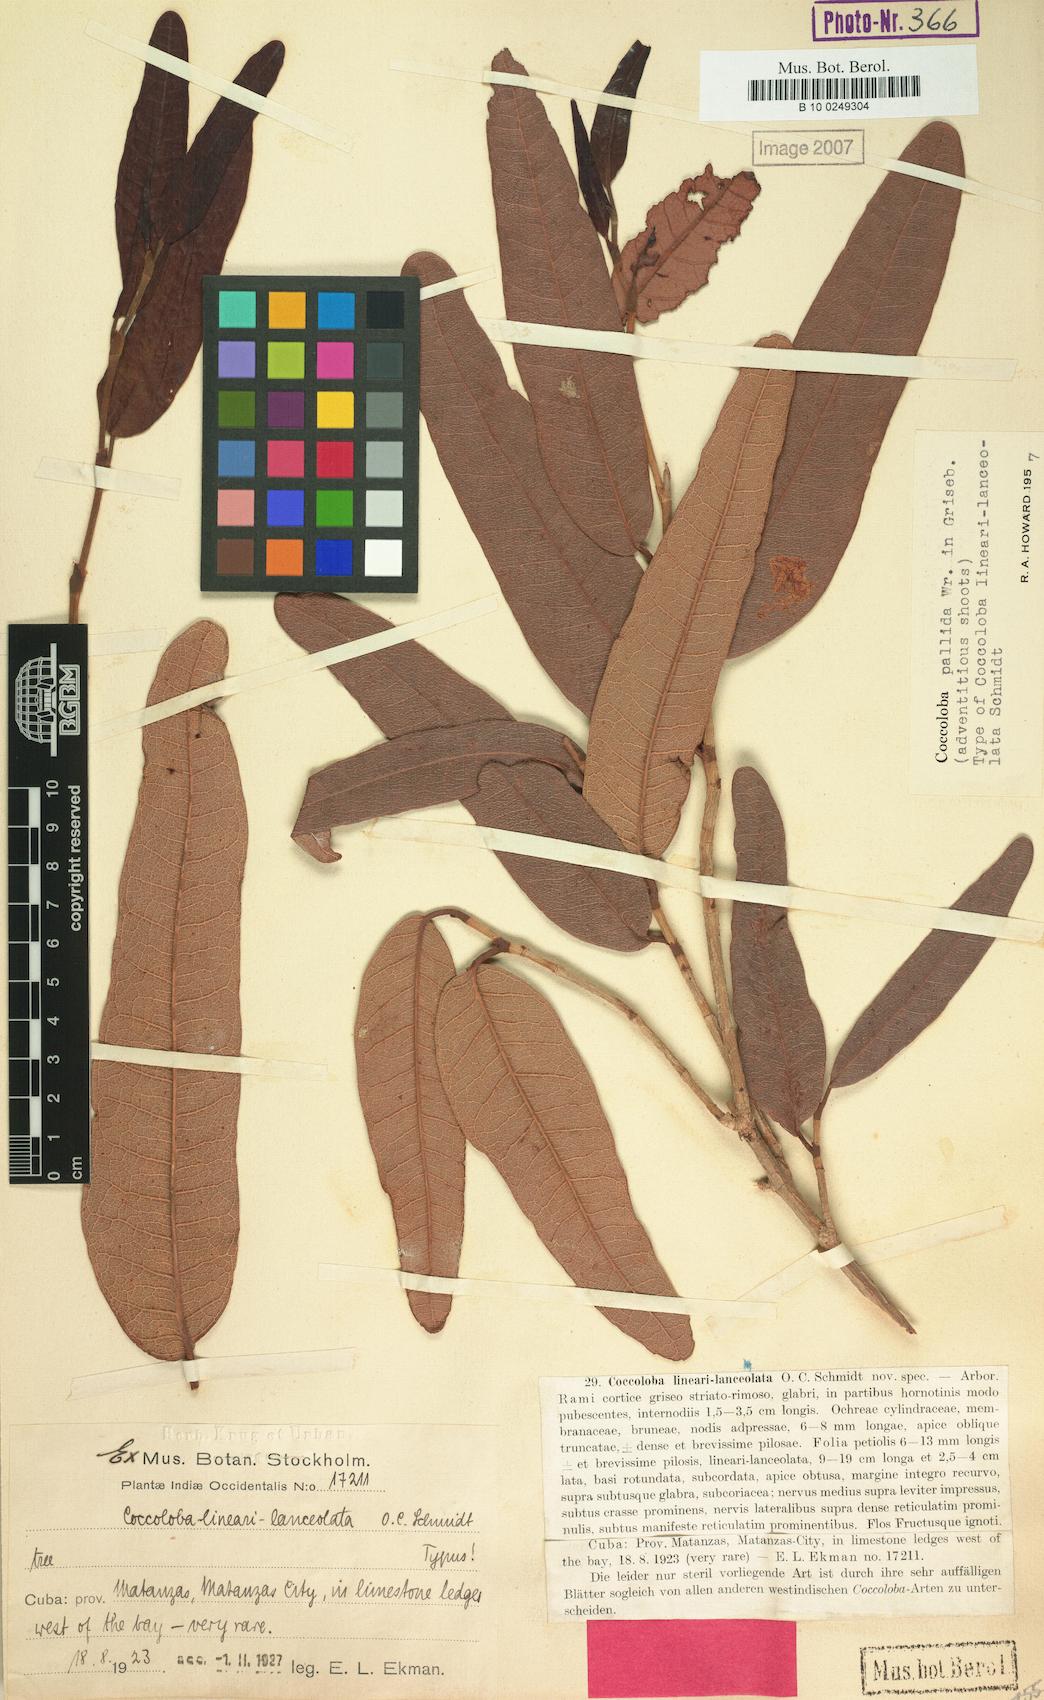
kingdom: Plantae
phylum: Tracheophyta
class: Magnoliopsida
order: Caryophyllales
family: Polygonaceae
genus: Coccoloba
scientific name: Coccoloba pallida
